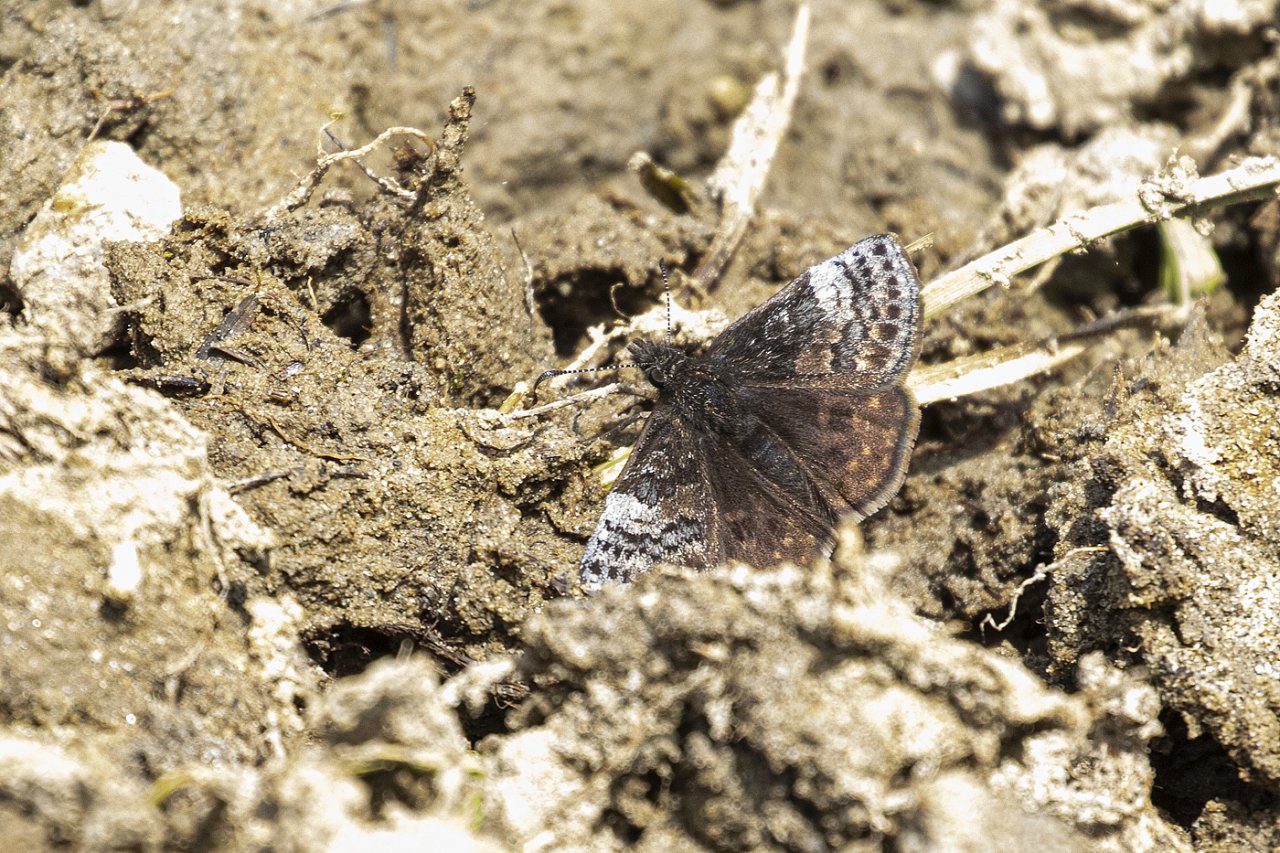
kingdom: Animalia
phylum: Arthropoda
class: Insecta
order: Lepidoptera
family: Hesperiidae
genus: Erynnis
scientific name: Erynnis icelus
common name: Dreamy Duskywing
